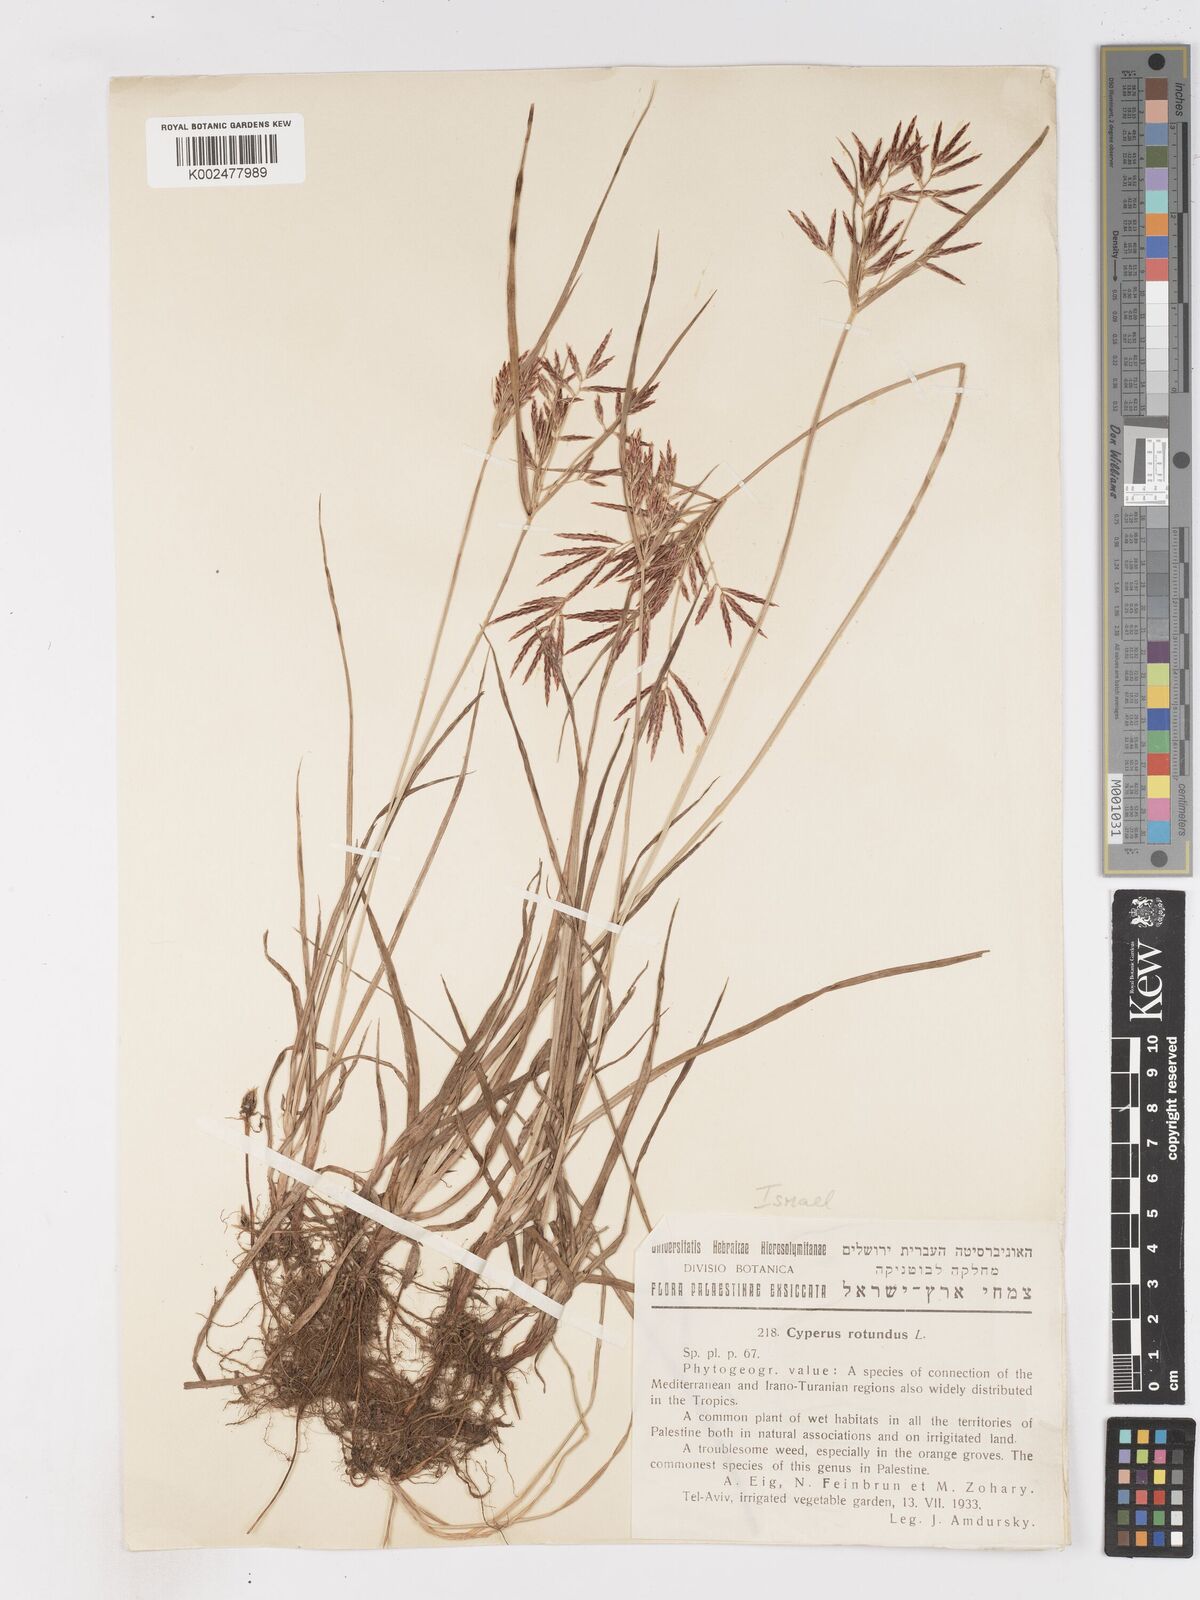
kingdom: Plantae
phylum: Tracheophyta
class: Liliopsida
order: Poales
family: Cyperaceae
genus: Cyperus
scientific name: Cyperus rotundus
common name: Nutgrass
